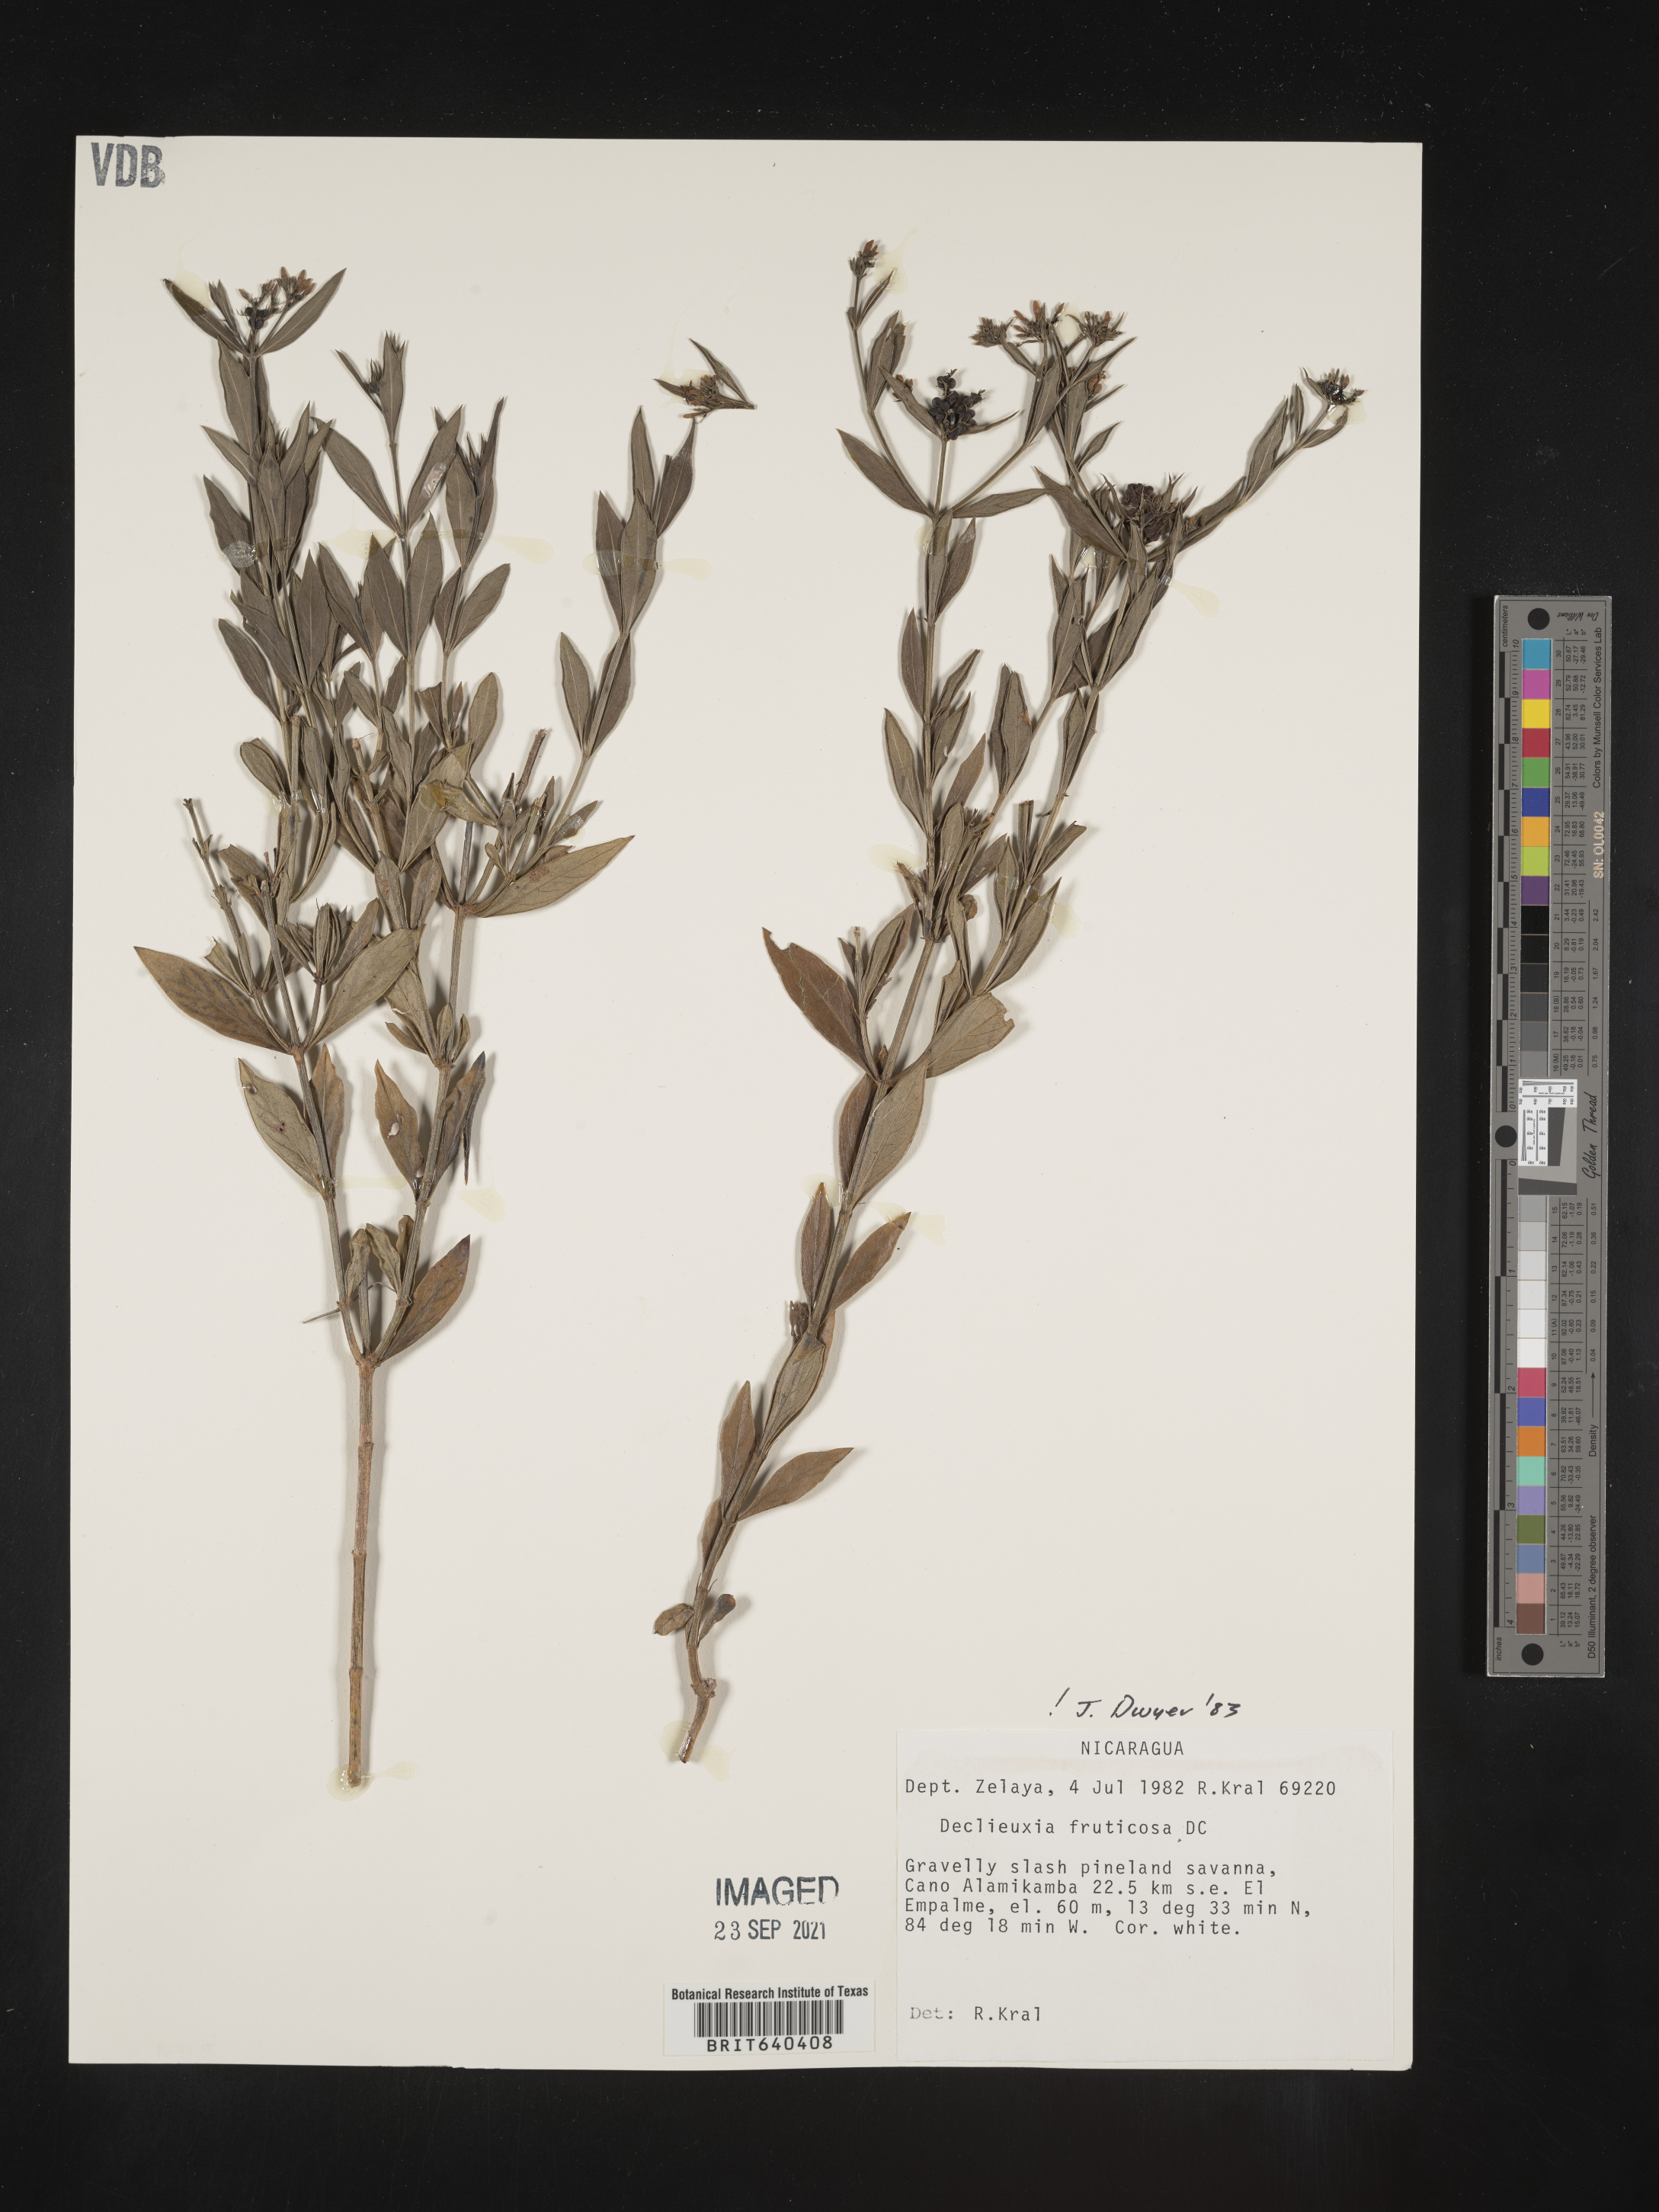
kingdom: Plantae
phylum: Tracheophyta
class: Magnoliopsida
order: Gentianales
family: Rubiaceae
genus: Declieuxia
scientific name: Declieuxia
